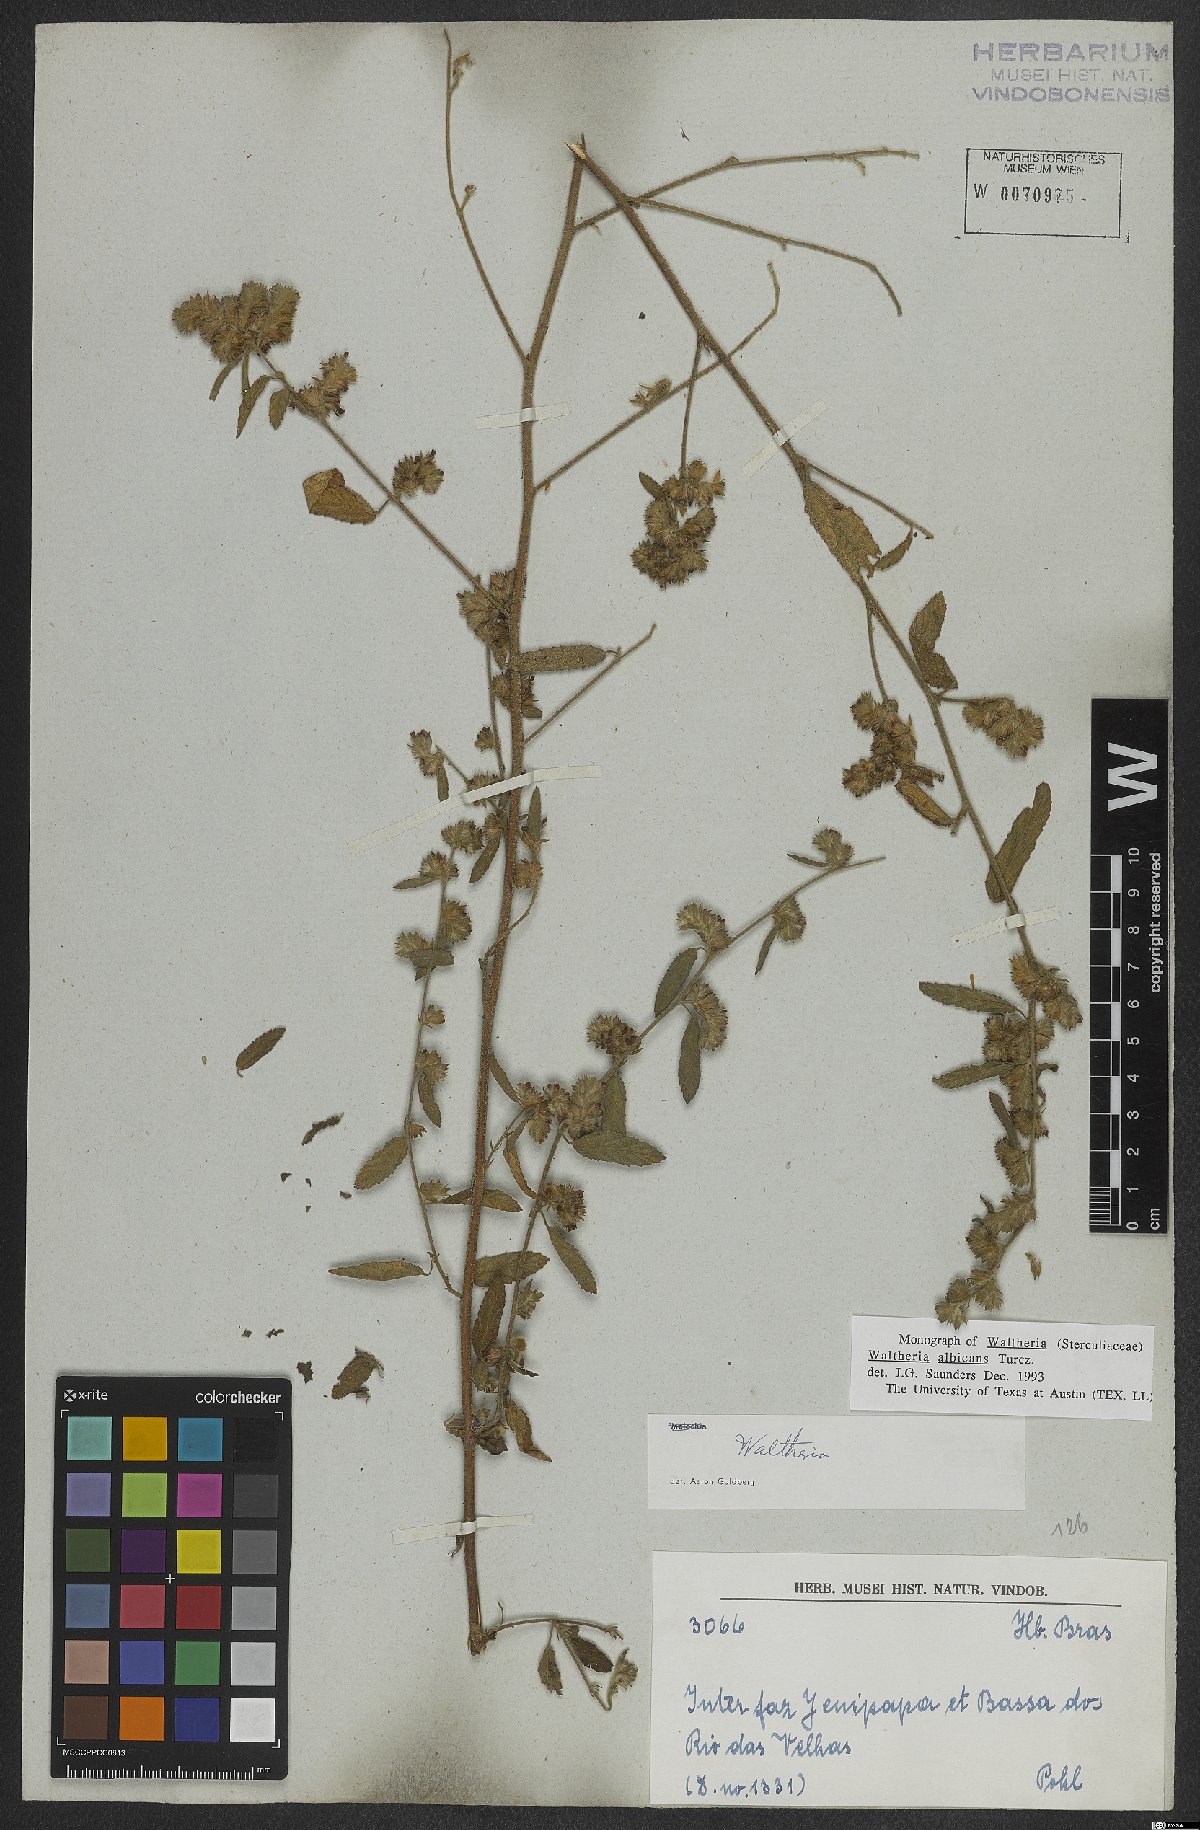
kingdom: Plantae
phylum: Tracheophyta
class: Magnoliopsida
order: Malvales
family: Malvaceae
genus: Waltheria
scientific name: Waltheria albicans
